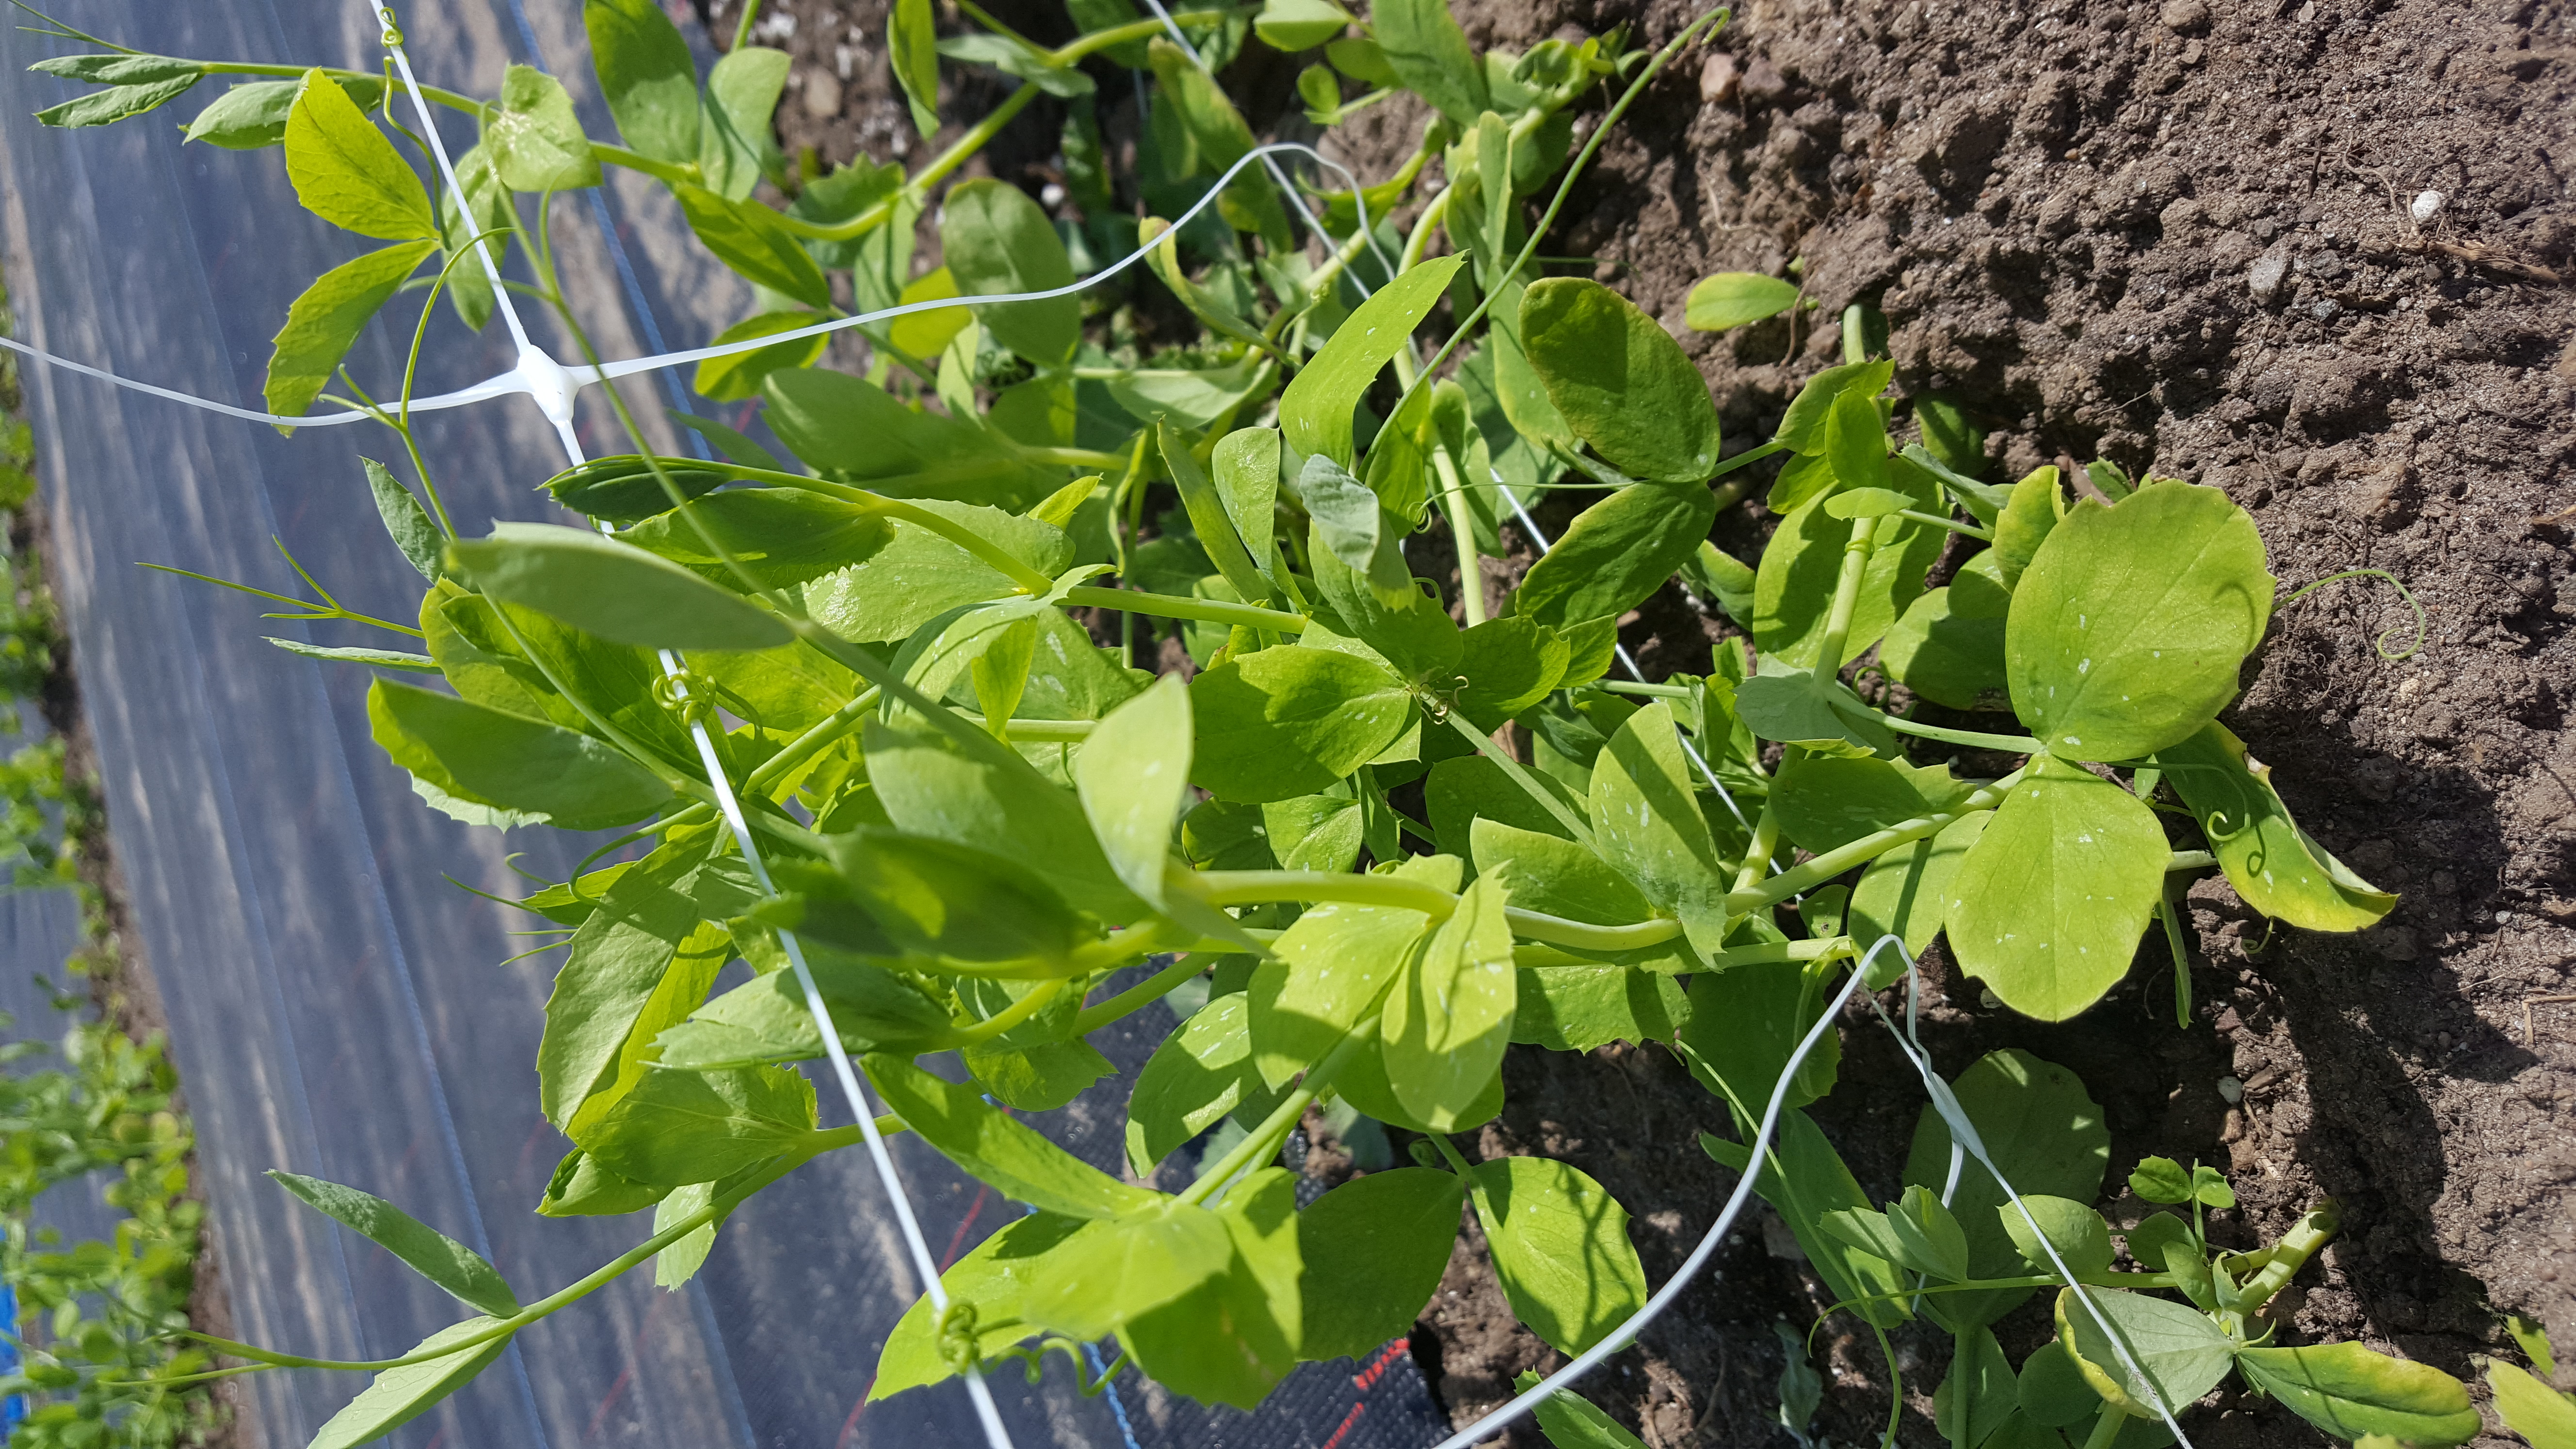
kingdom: Plantae
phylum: Tracheophyta
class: Magnoliopsida
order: Fabales
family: Fabaceae
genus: Lathyrus
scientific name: Lathyrus oleraceus
